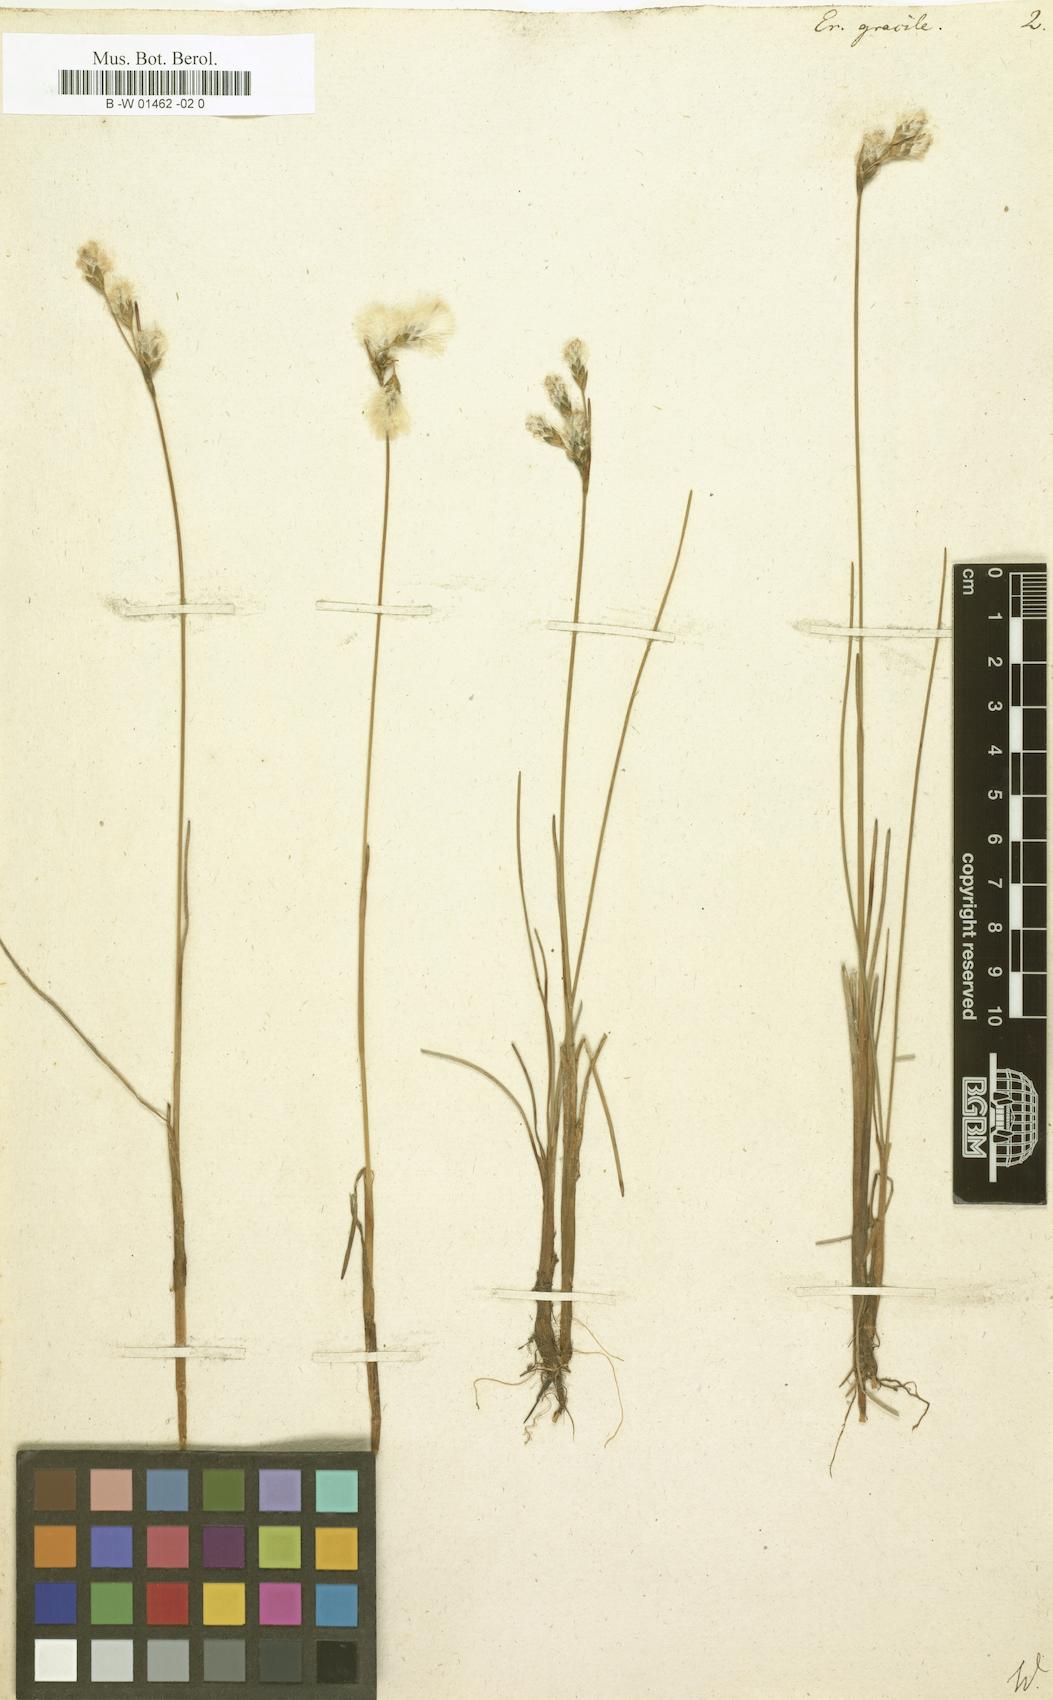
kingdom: Plantae
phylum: Tracheophyta
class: Liliopsida
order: Poales
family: Cyperaceae
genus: Eriophorum
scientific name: Eriophorum gracile
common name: Slender cottongrass
